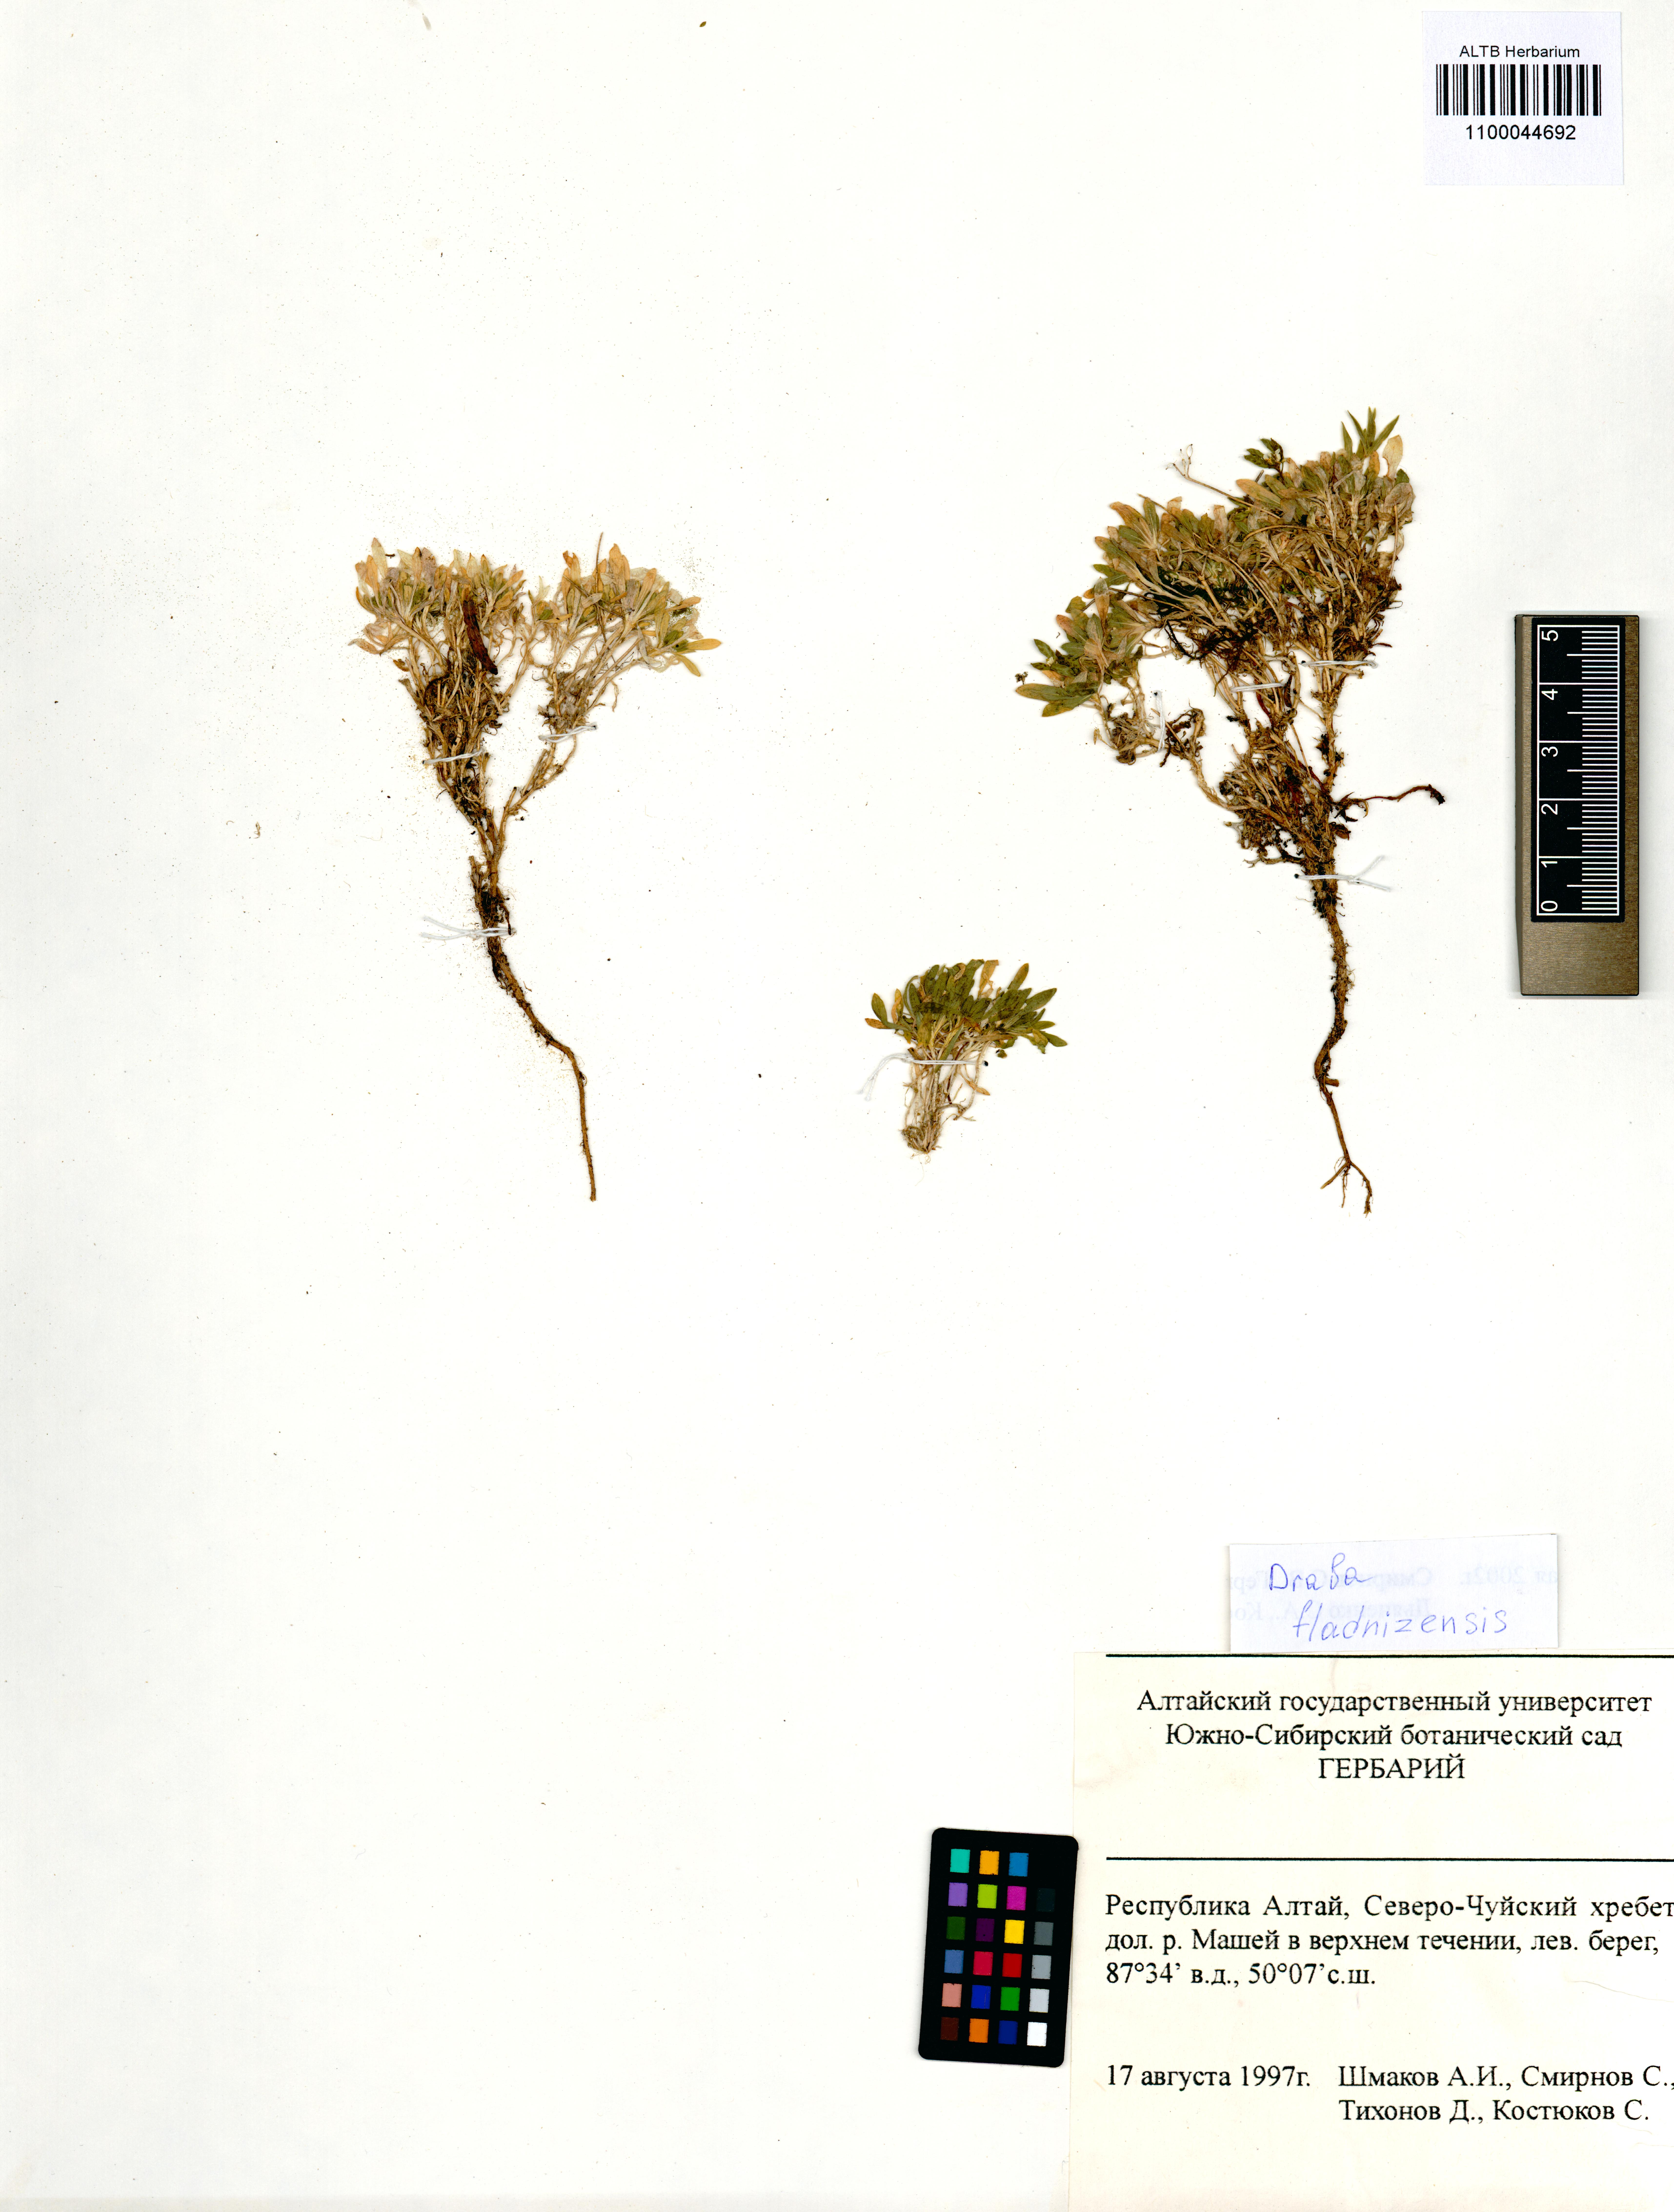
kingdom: Plantae
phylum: Tracheophyta
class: Magnoliopsida
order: Brassicales
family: Brassicaceae
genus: Draba
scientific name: Draba fladnizensis
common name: Austrian draba
